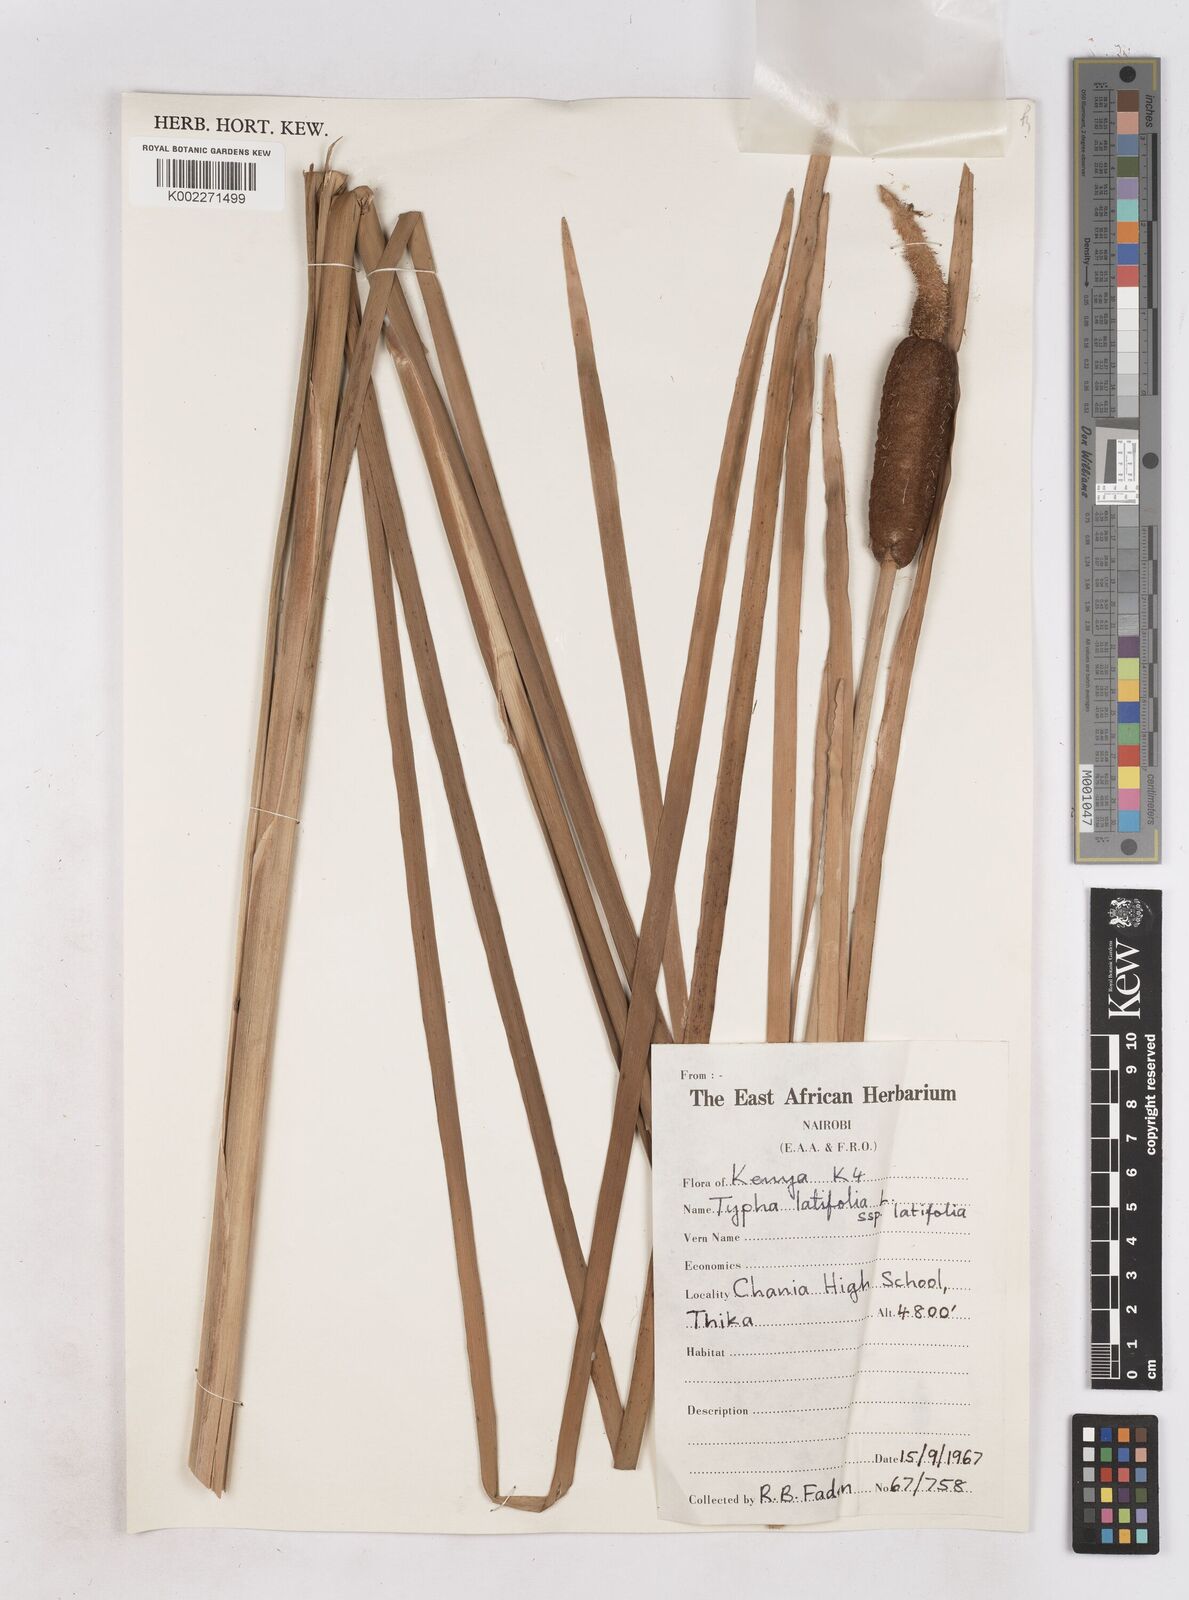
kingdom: Plantae
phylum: Tracheophyta
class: Liliopsida
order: Poales
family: Typhaceae
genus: Typha
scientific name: Typha latifolia
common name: Broadleaf cattail
